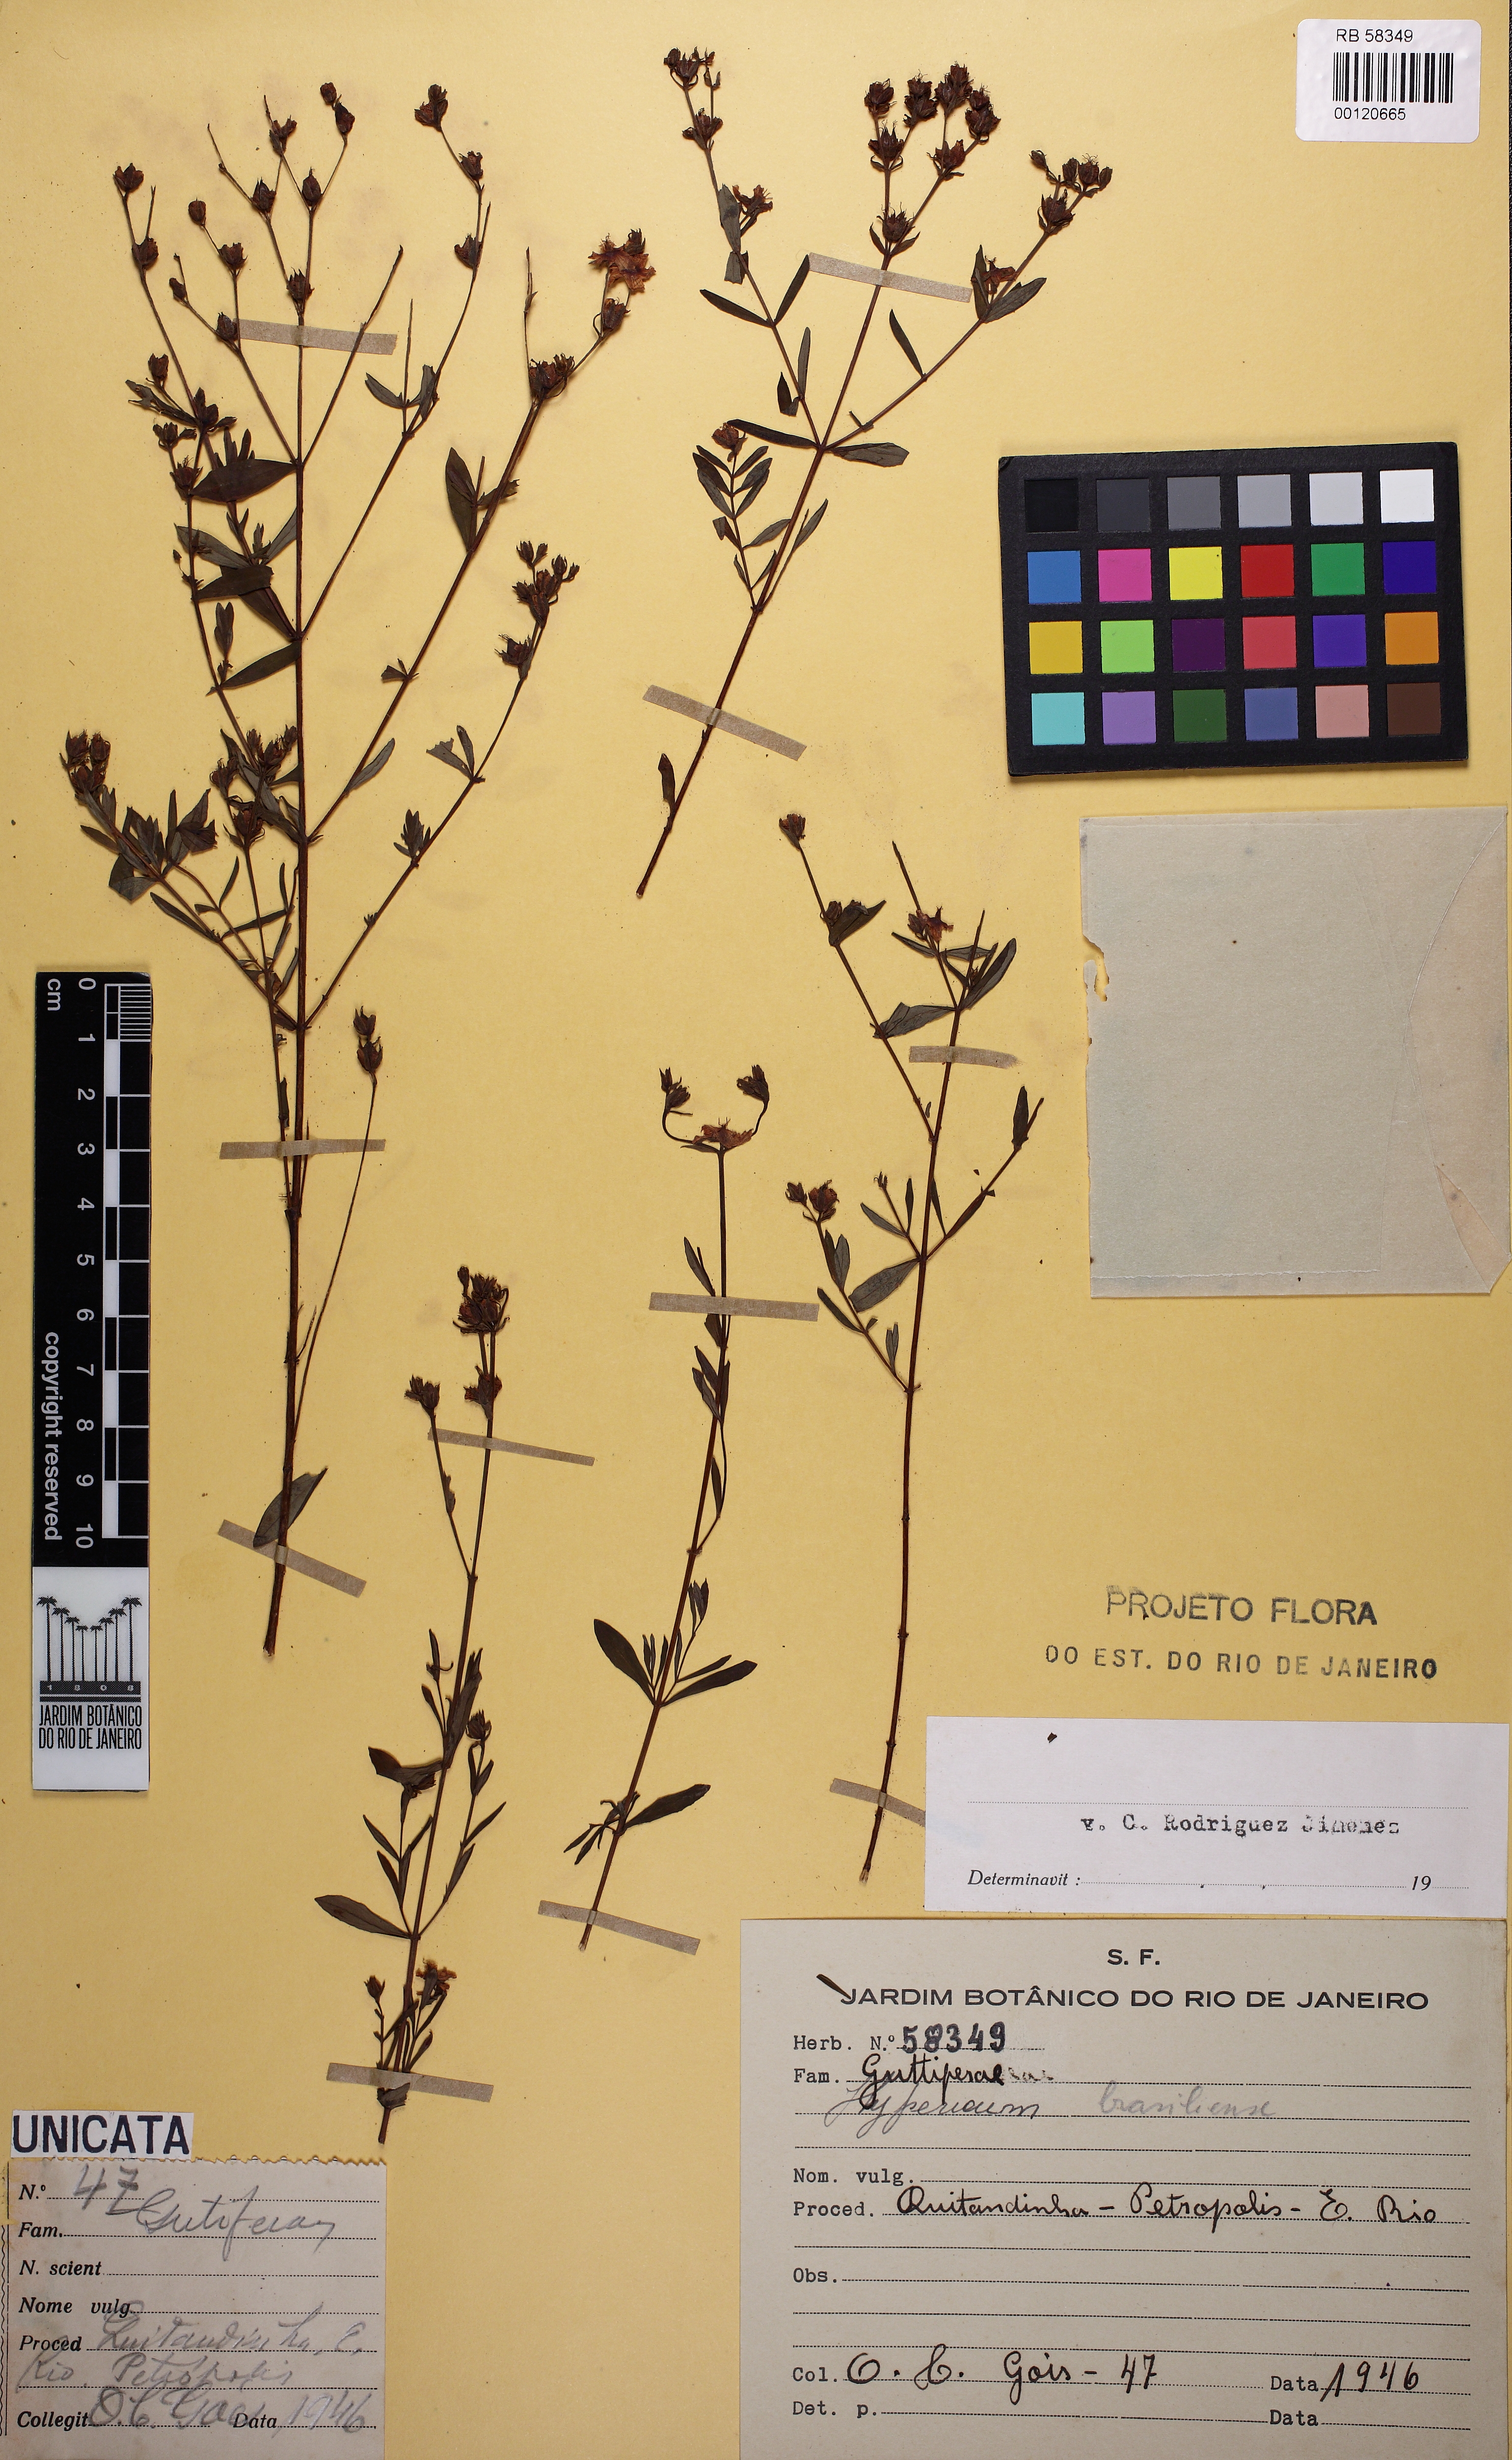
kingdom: Plantae
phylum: Tracheophyta
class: Magnoliopsida
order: Malpighiales
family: Hypericaceae
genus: Hypericum
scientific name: Hypericum brasiliense
